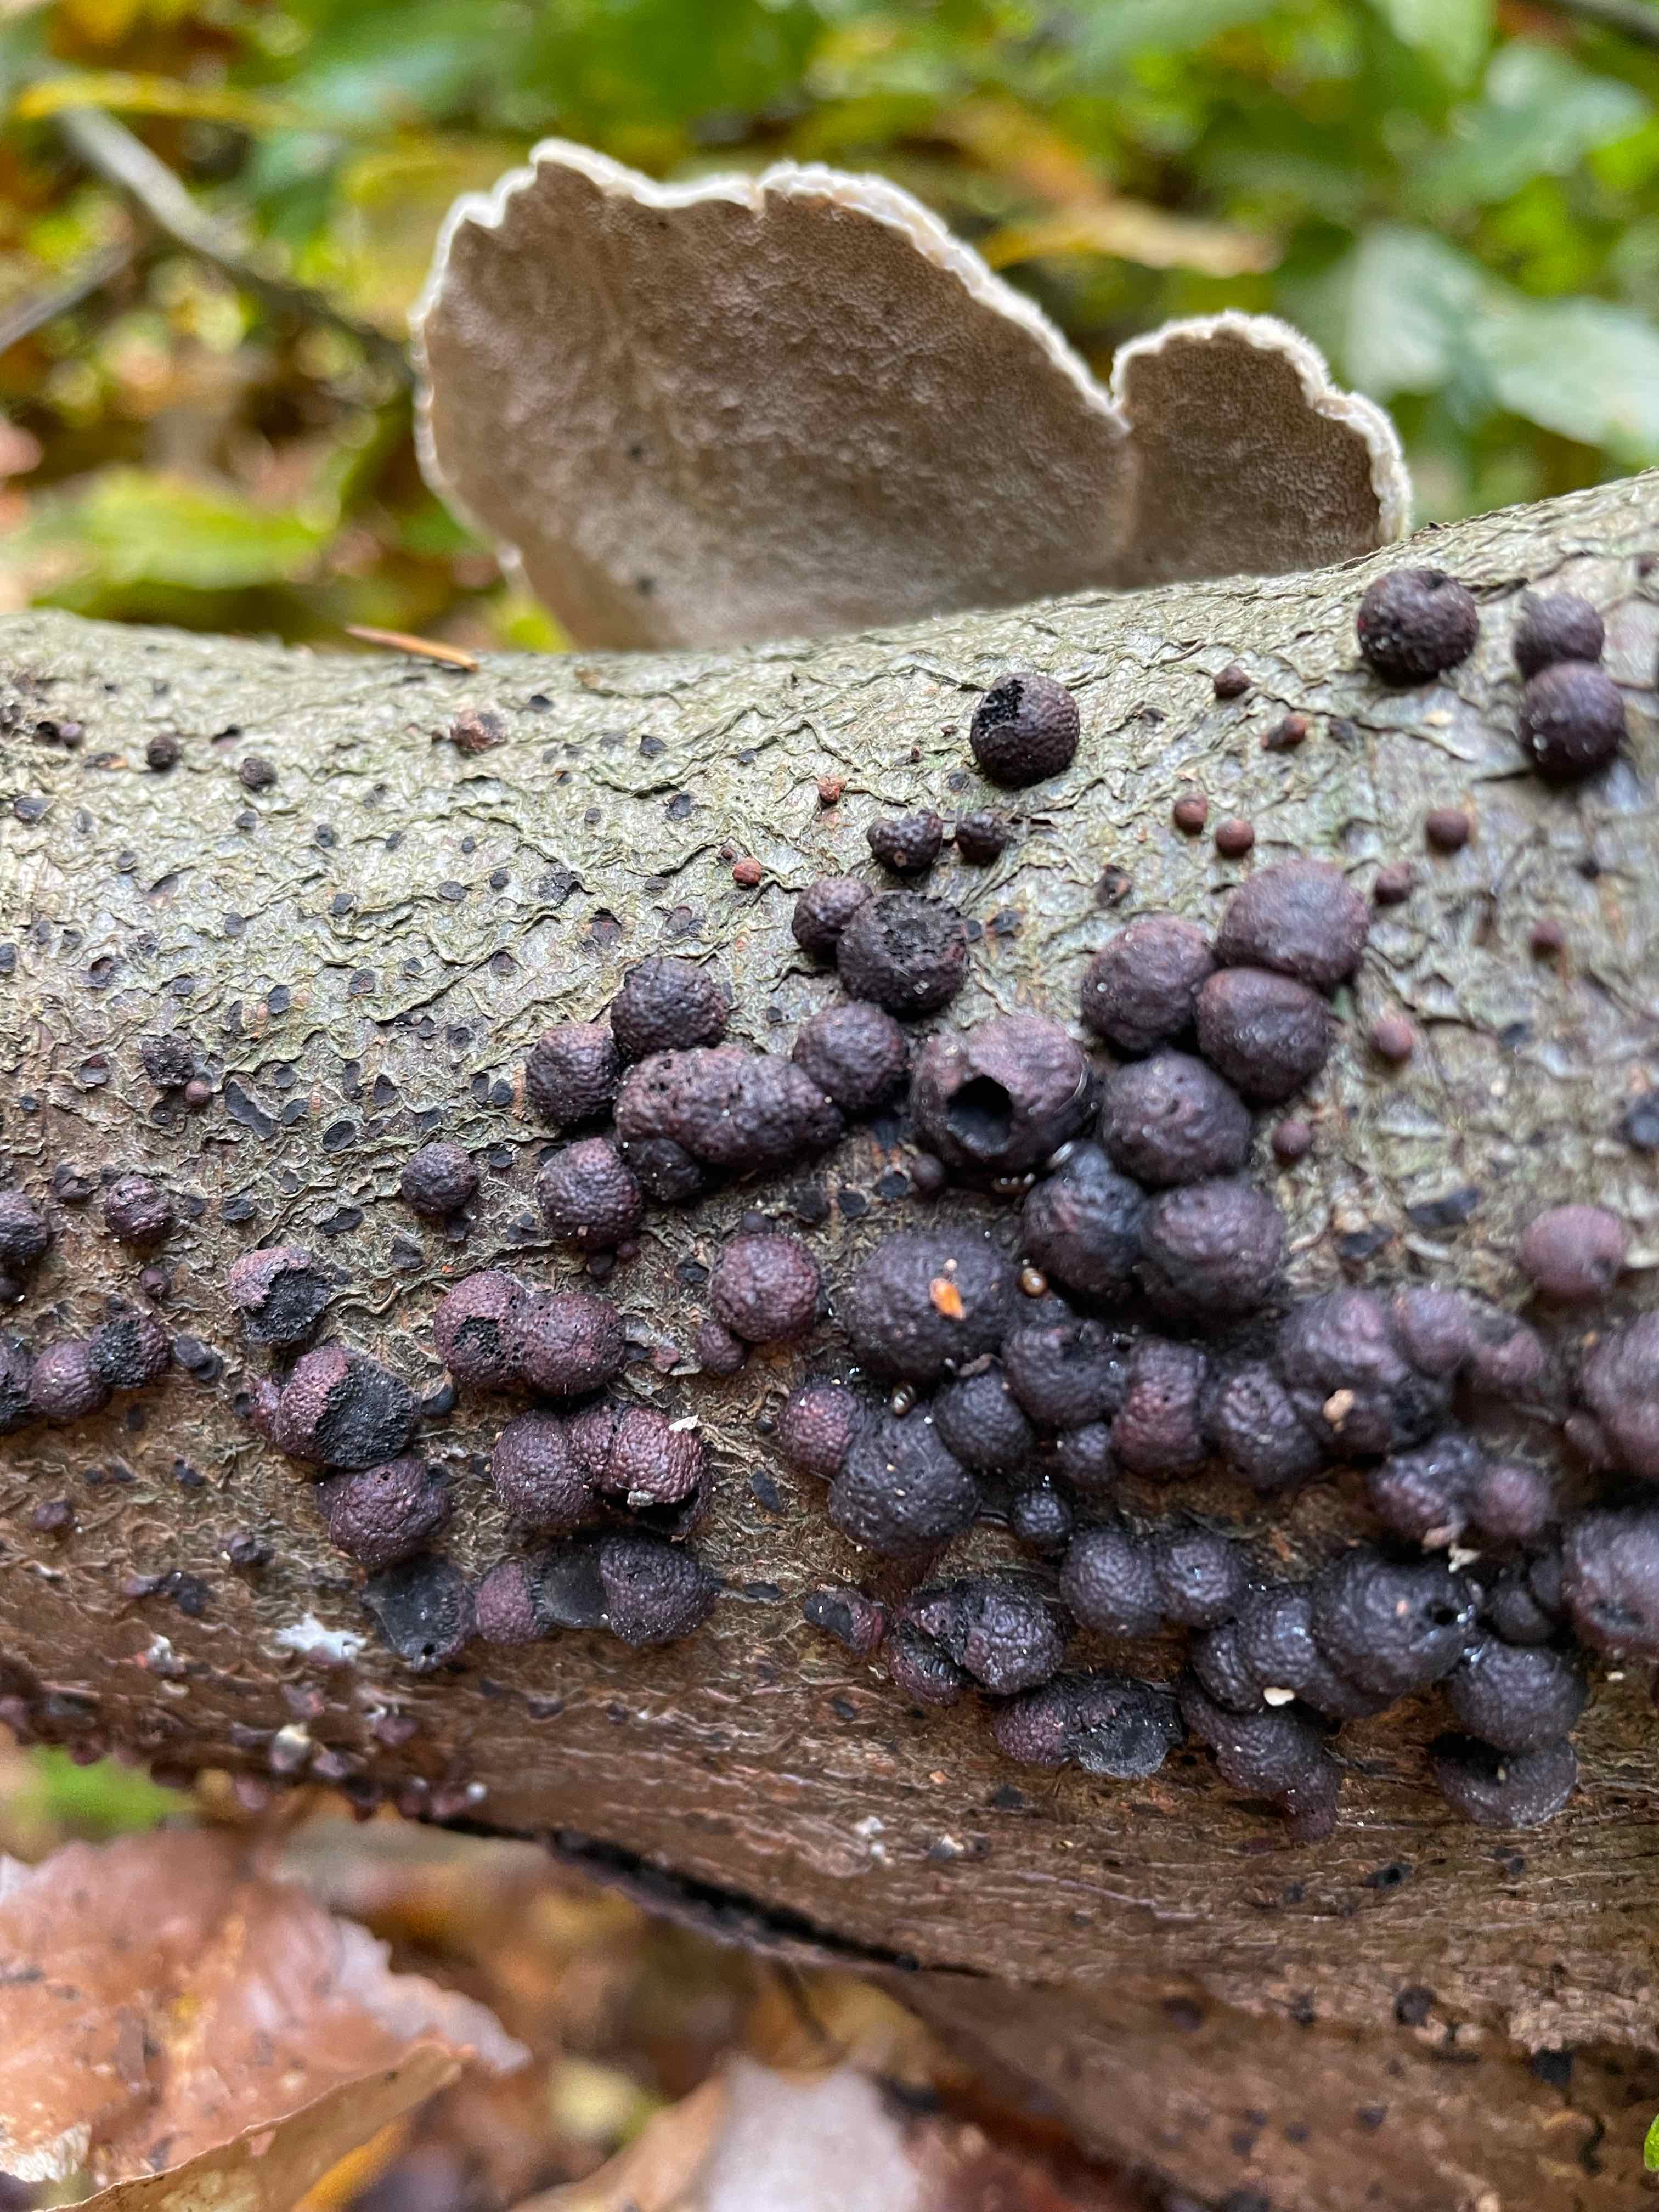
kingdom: Fungi
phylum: Ascomycota
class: Sordariomycetes
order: Xylariales
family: Hypoxylaceae
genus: Hypoxylon
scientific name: Hypoxylon fragiforme
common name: kuljordbær
